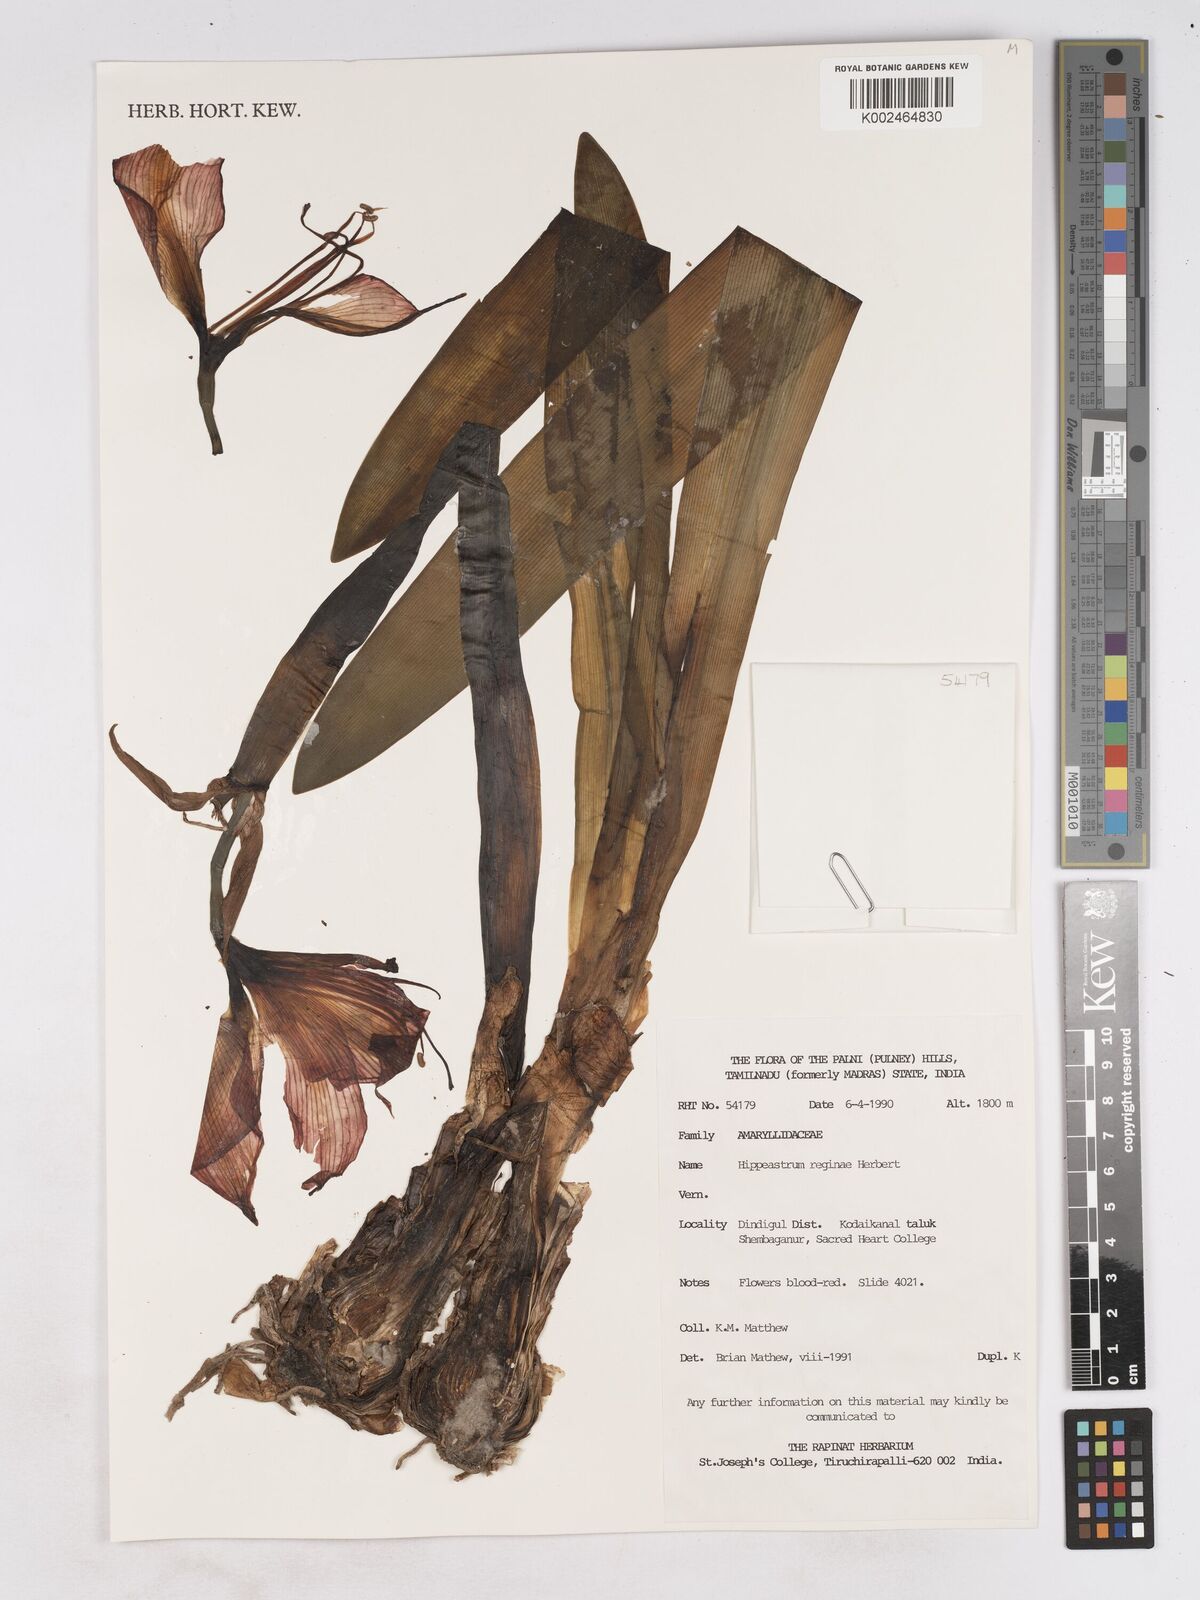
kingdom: Plantae
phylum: Tracheophyta
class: Liliopsida
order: Asparagales
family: Amaryllidaceae
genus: Hippeastrum
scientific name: Hippeastrum reginae
